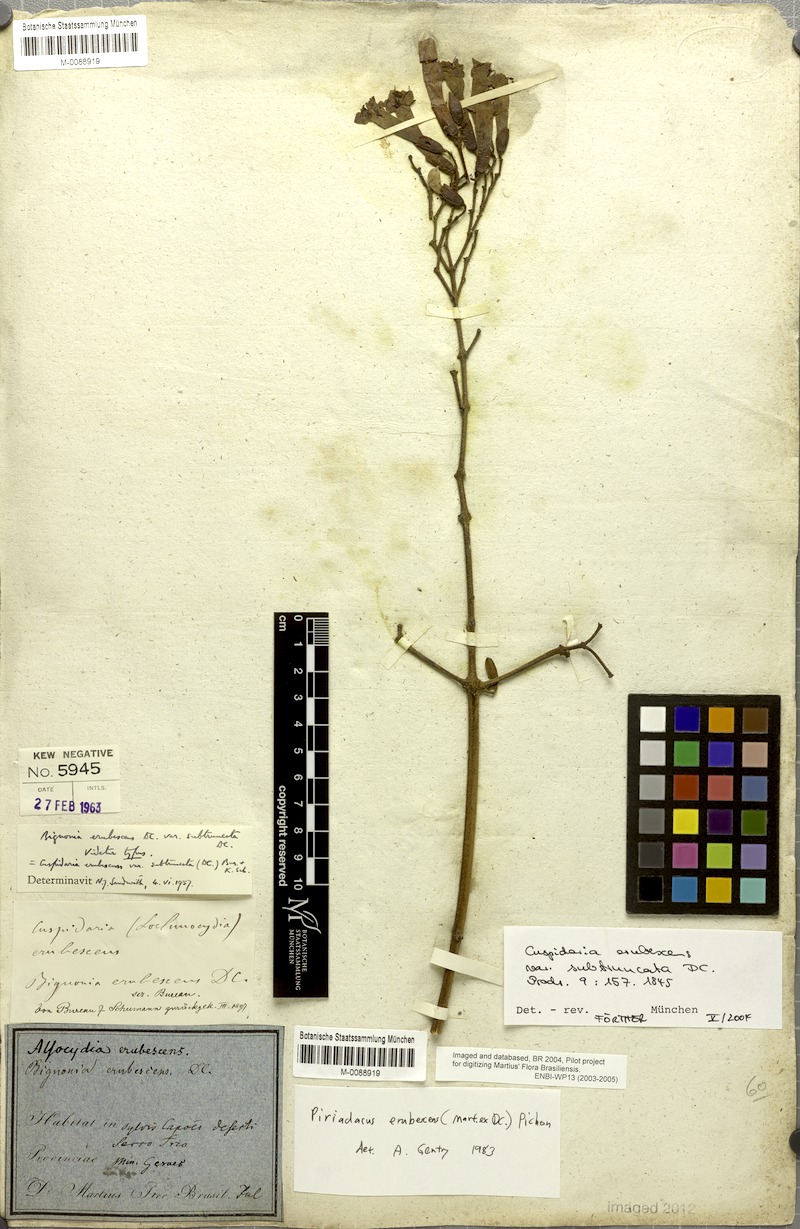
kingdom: Plantae
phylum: Tracheophyta
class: Magnoliopsida
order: Lamiales
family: Bignoniaceae
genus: Fridericia
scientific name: Fridericia erubescens
